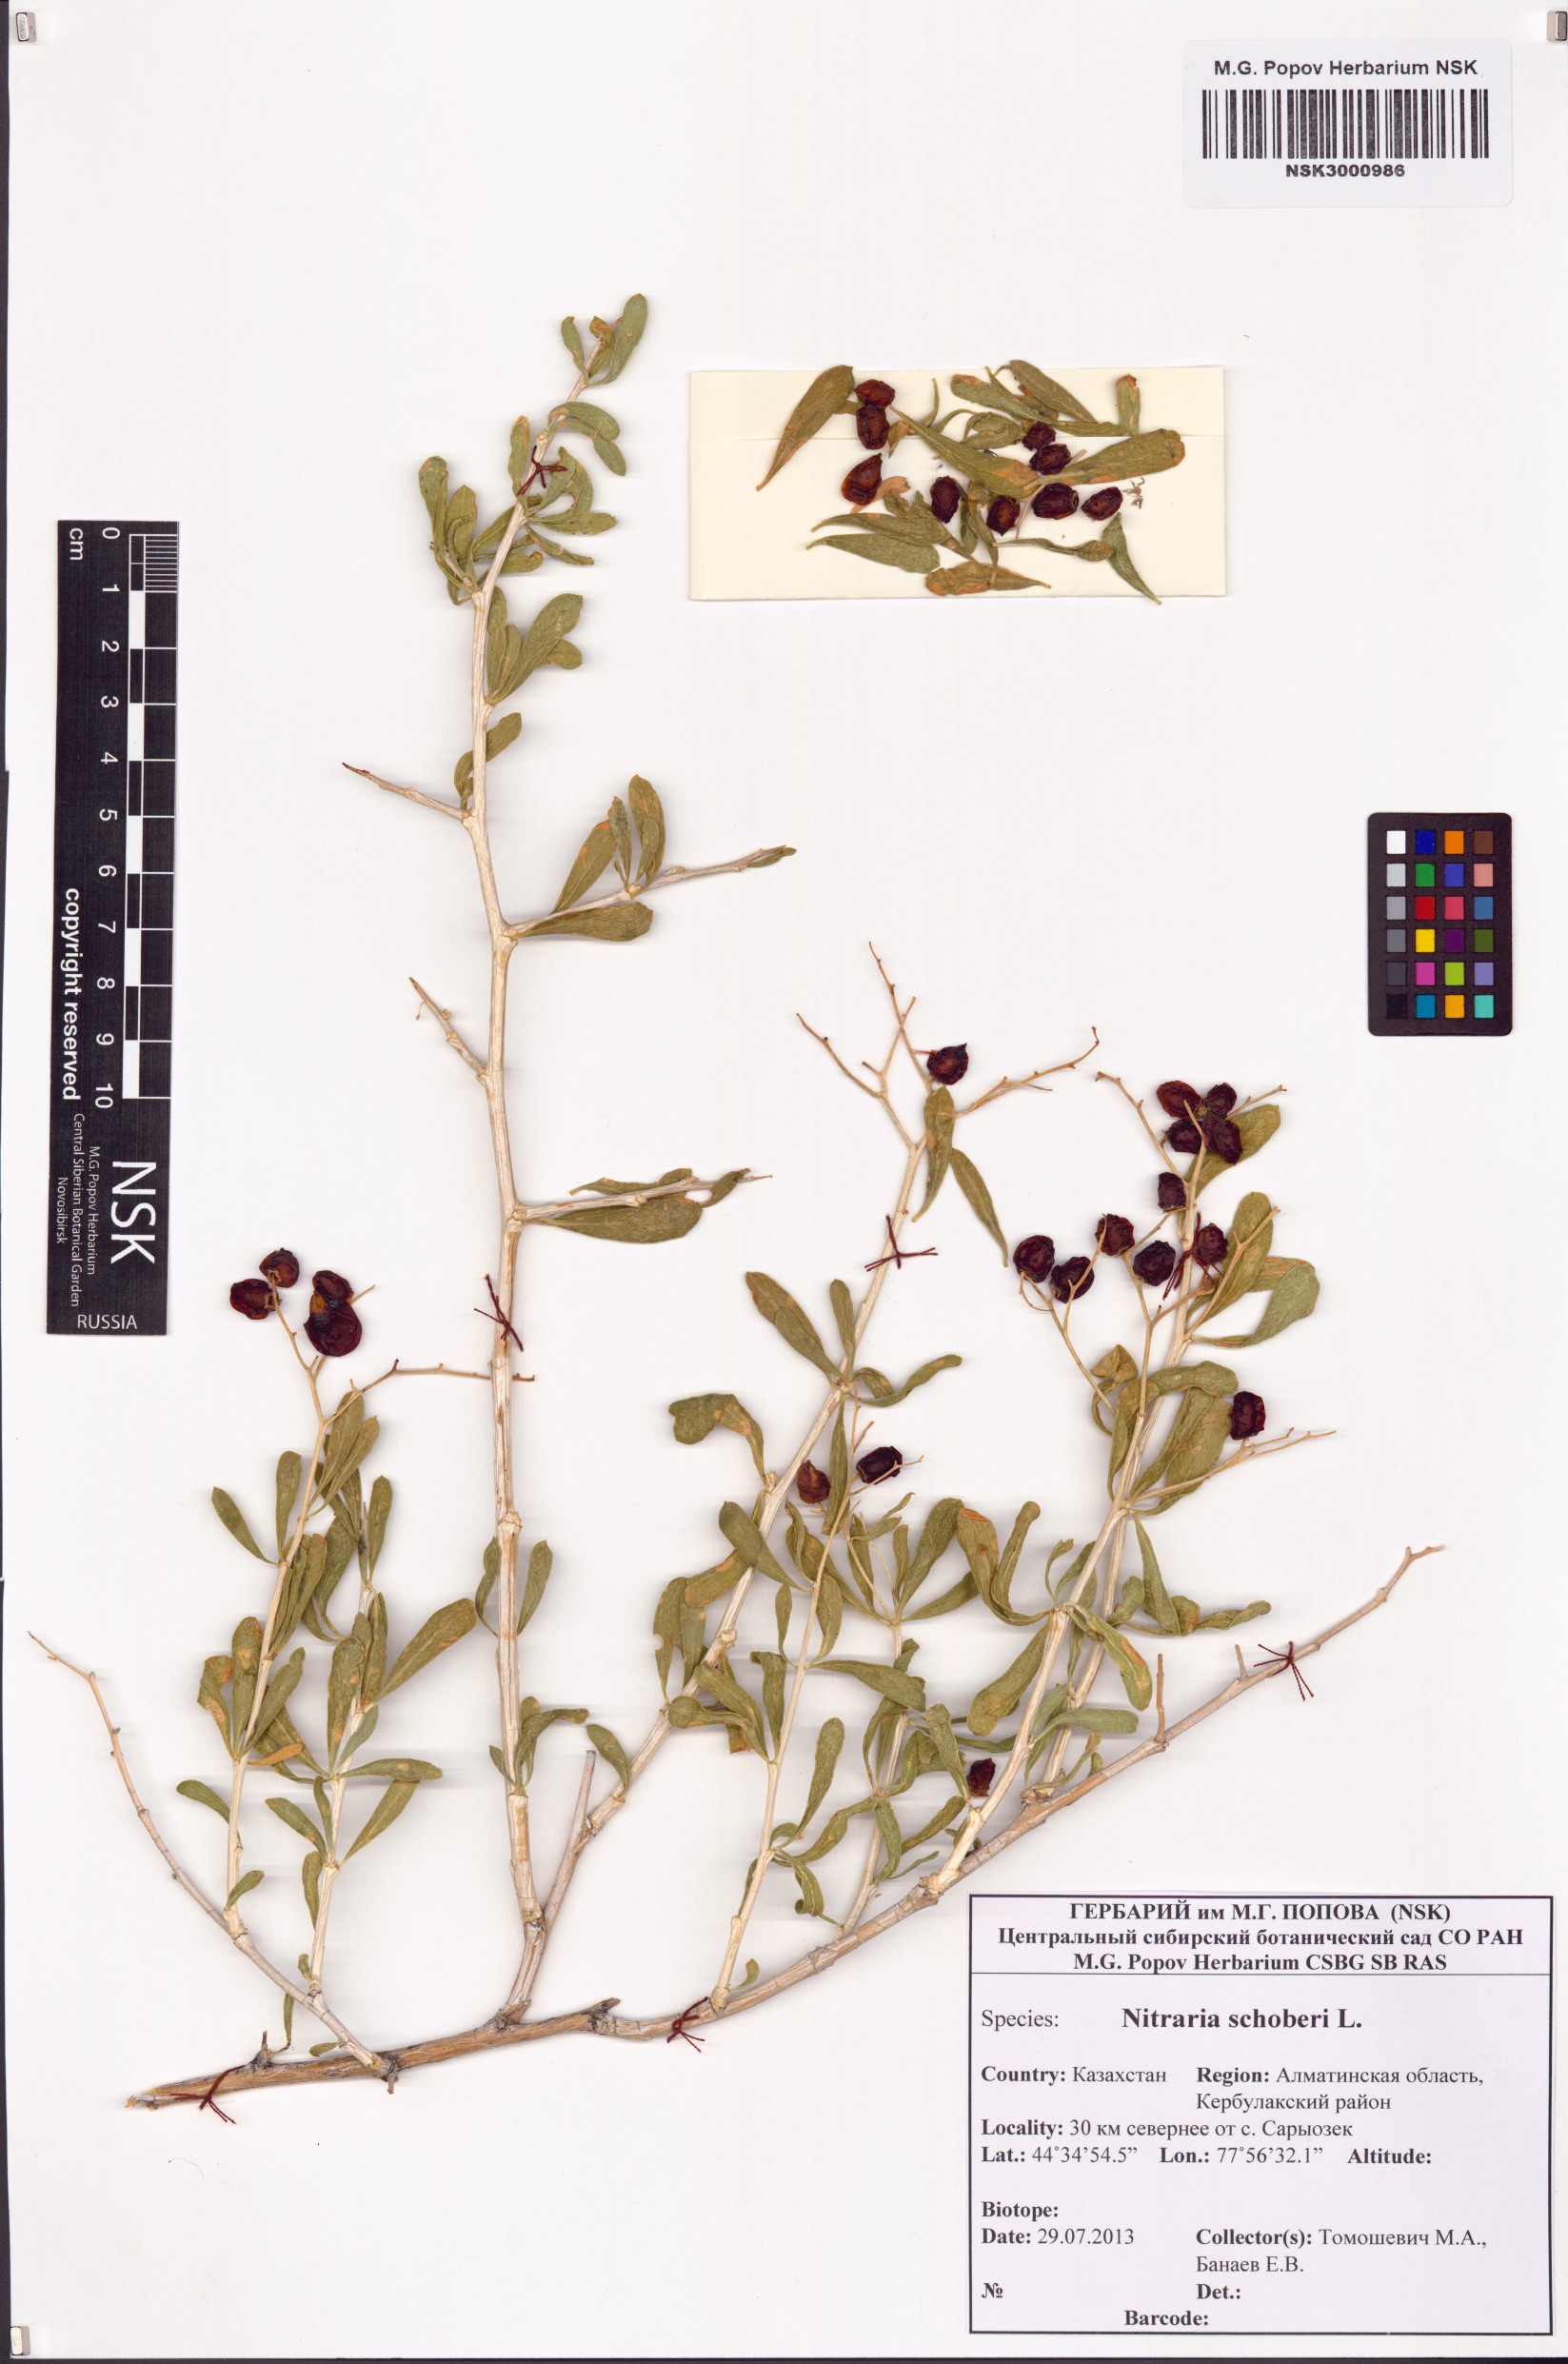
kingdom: Plantae
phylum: Tracheophyta
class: Magnoliopsida
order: Sapindales
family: Nitrariaceae
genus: Nitraria
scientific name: Nitraria schoberi
